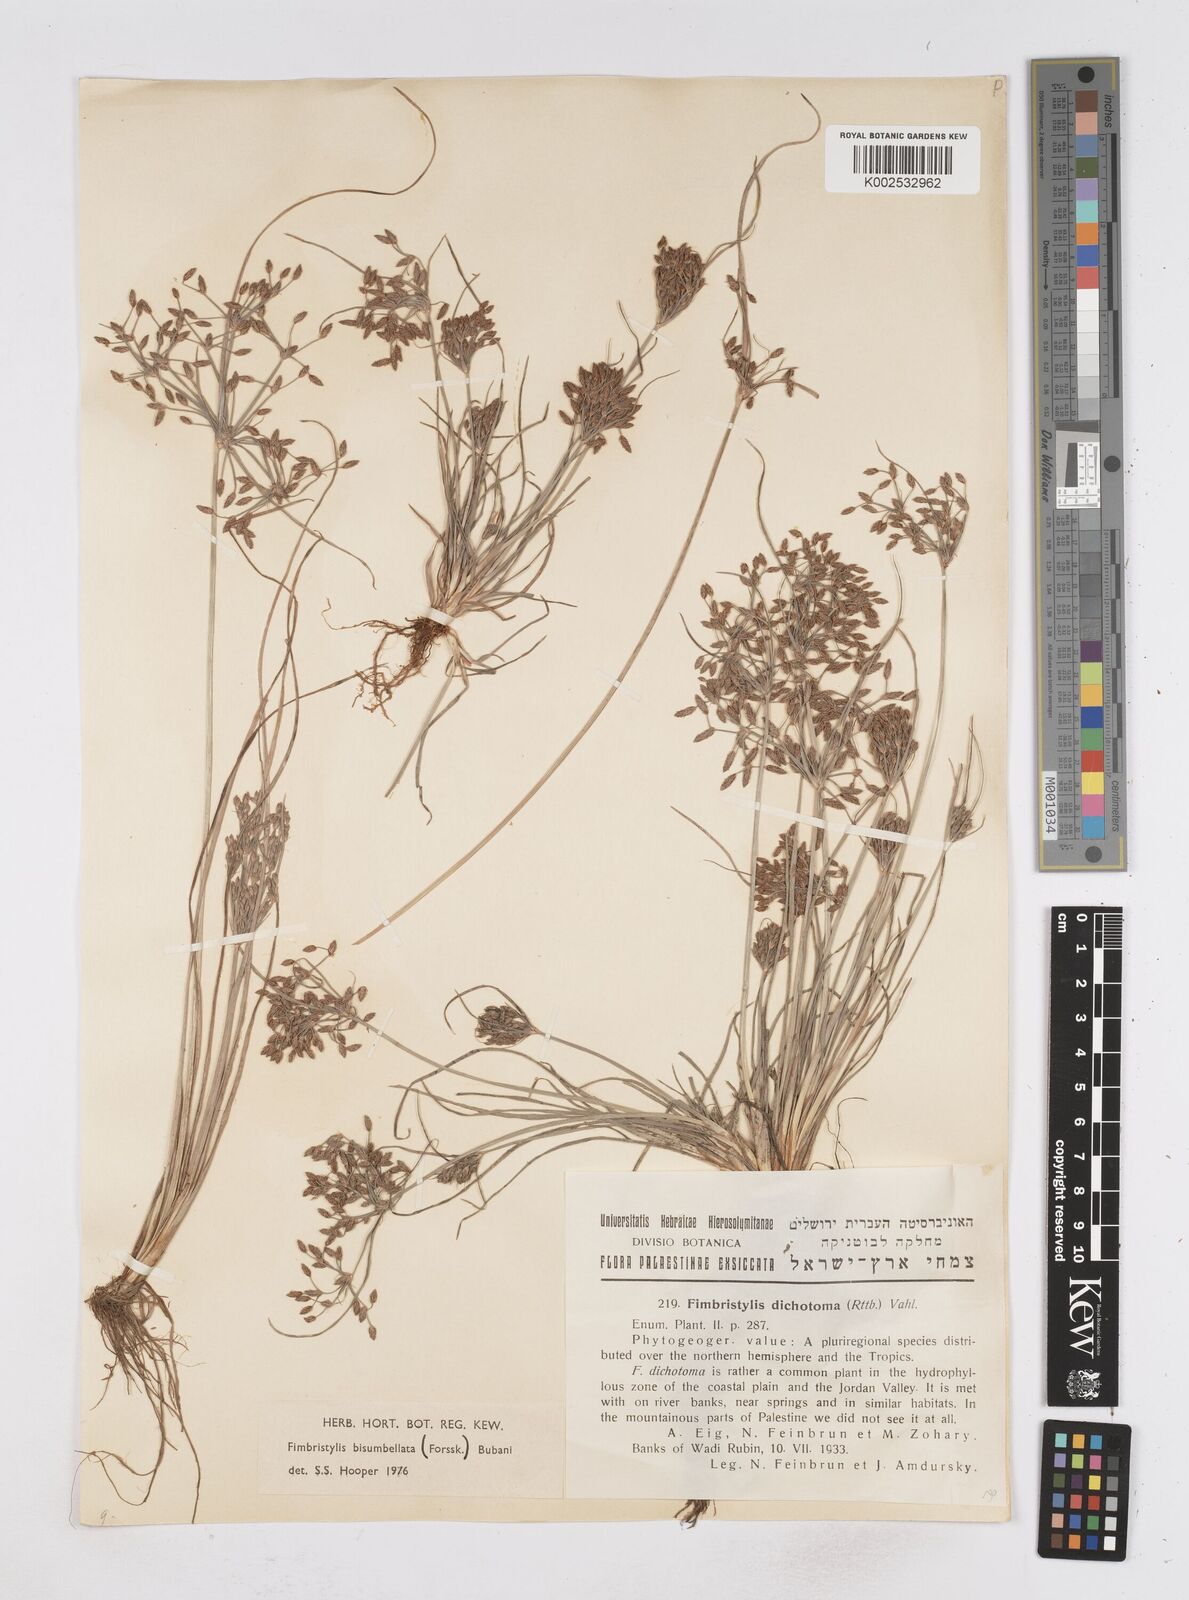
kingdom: Plantae
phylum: Tracheophyta
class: Liliopsida
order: Poales
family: Cyperaceae
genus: Fimbristylis
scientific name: Fimbristylis bisumbellata
